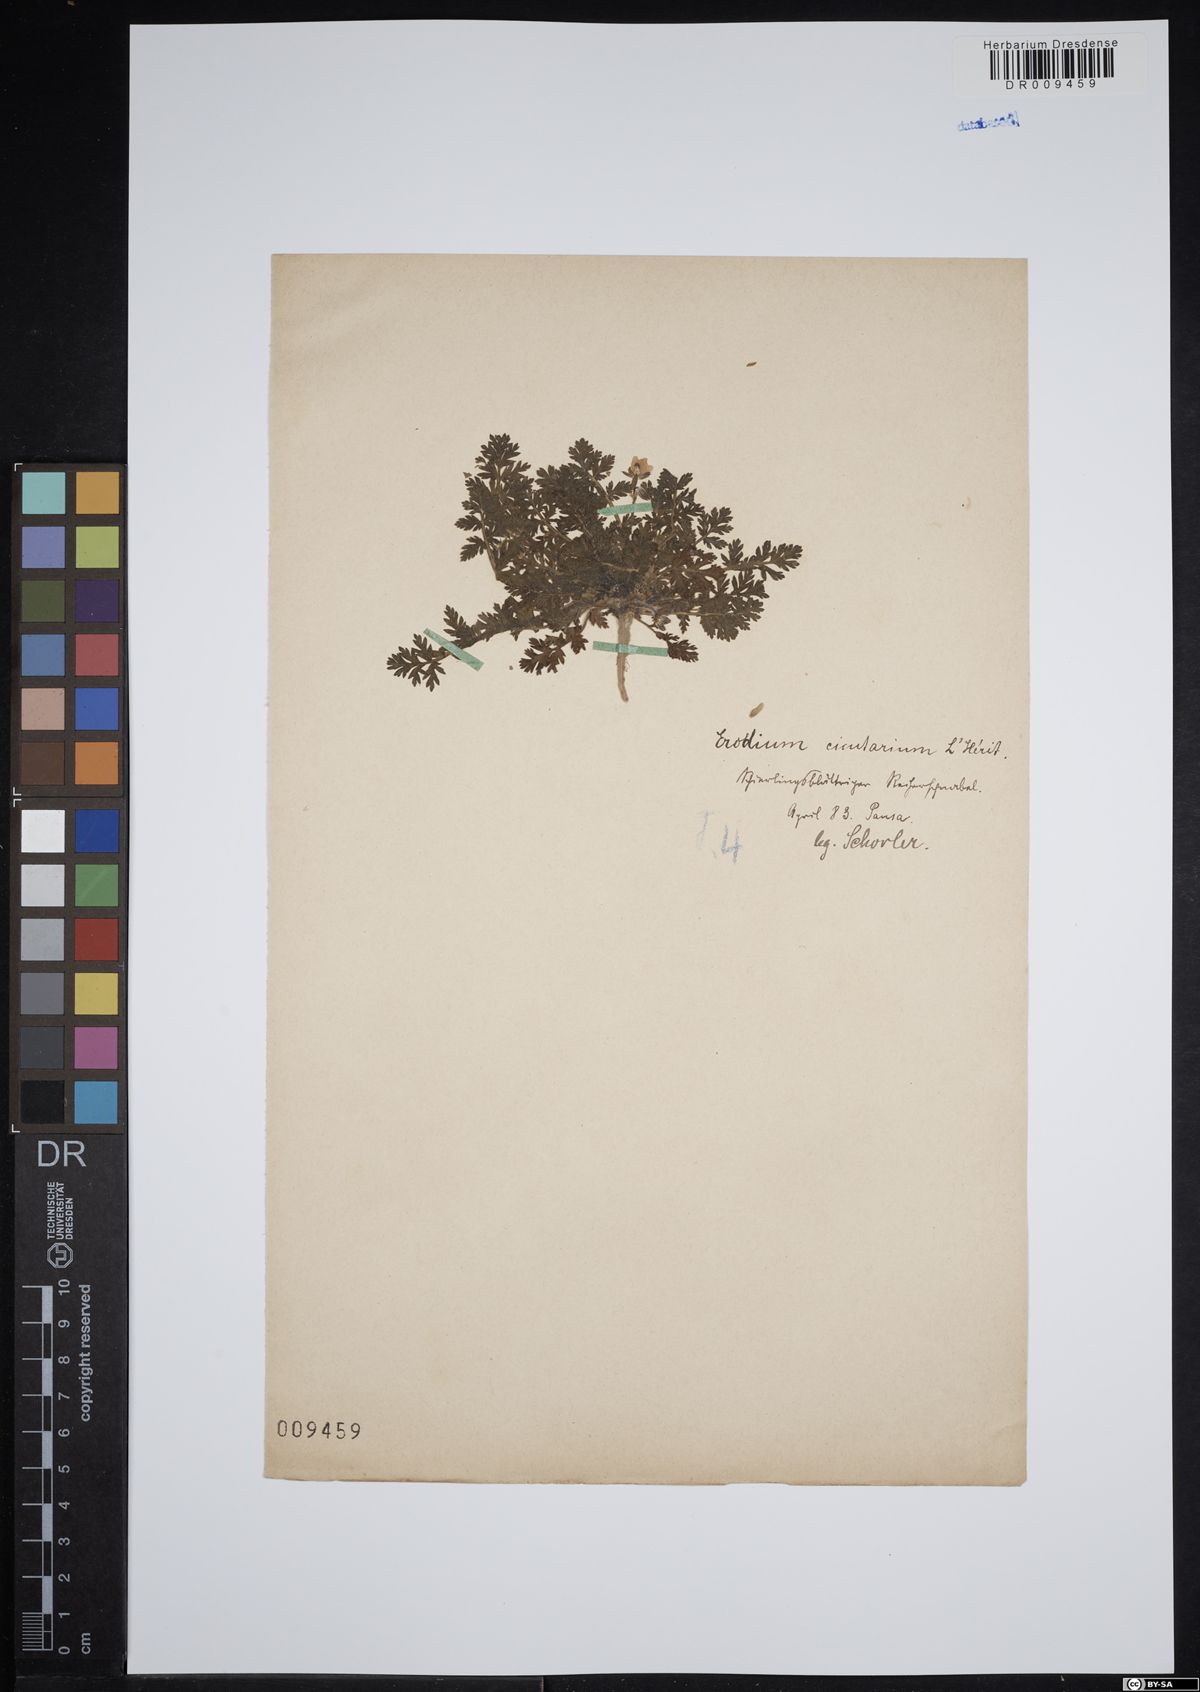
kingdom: Plantae
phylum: Tracheophyta
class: Magnoliopsida
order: Geraniales
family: Geraniaceae
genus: Erodium
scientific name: Erodium cicutarium
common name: Common stork's-bill
